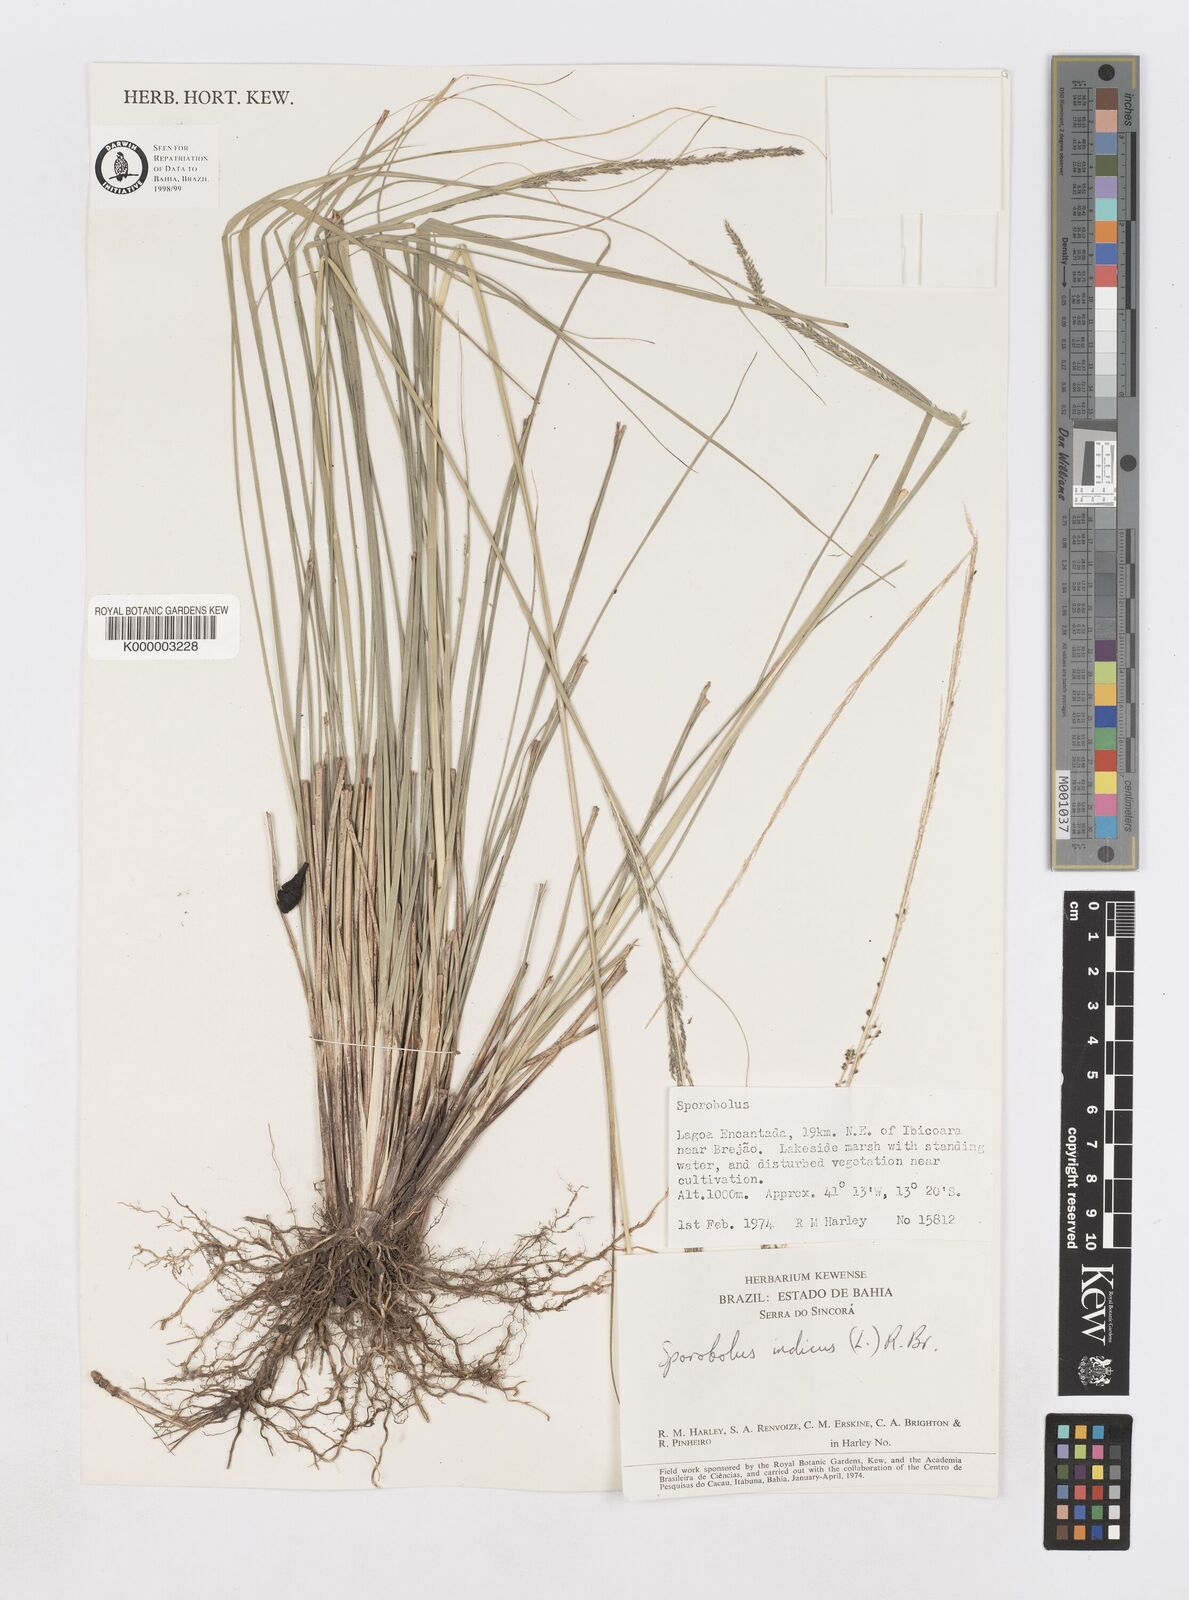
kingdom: Plantae
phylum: Tracheophyta
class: Liliopsida
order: Poales
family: Poaceae
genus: Sporobolus
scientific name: Sporobolus indicus
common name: Smut grass
